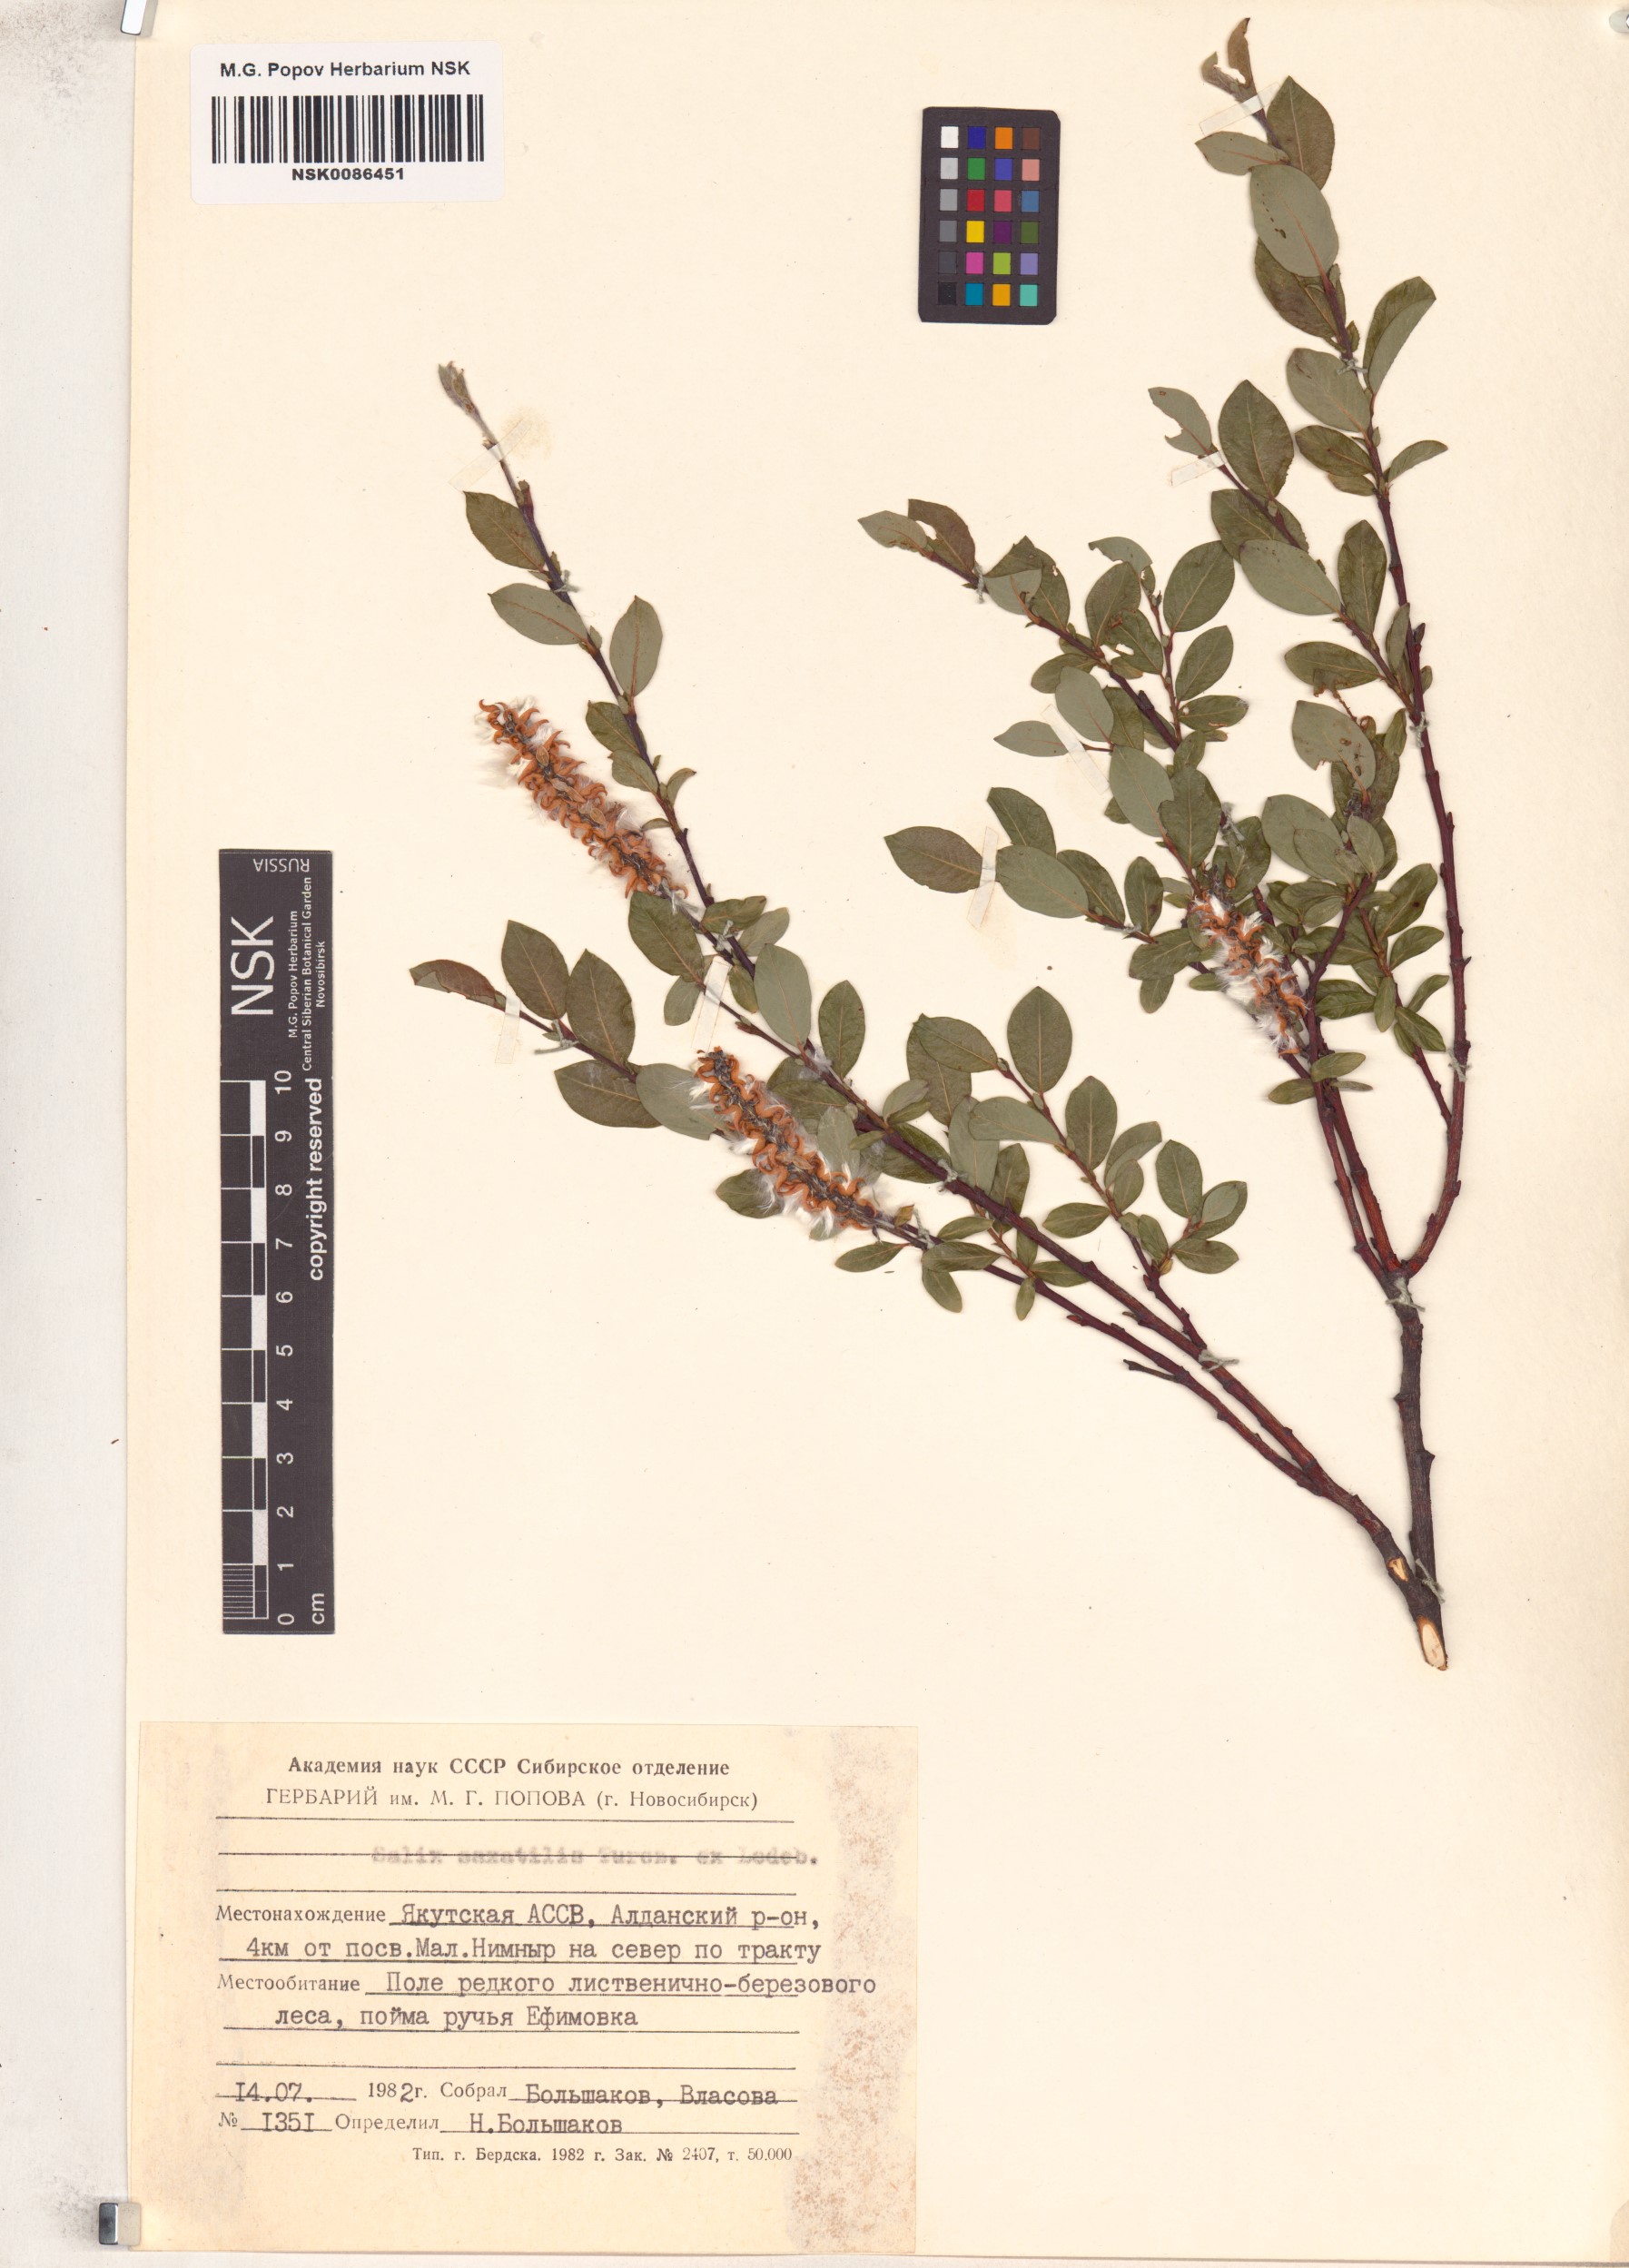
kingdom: Plantae
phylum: Tracheophyta
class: Magnoliopsida
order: Malpighiales
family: Salicaceae
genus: Salix
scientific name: Salix saxatilis
